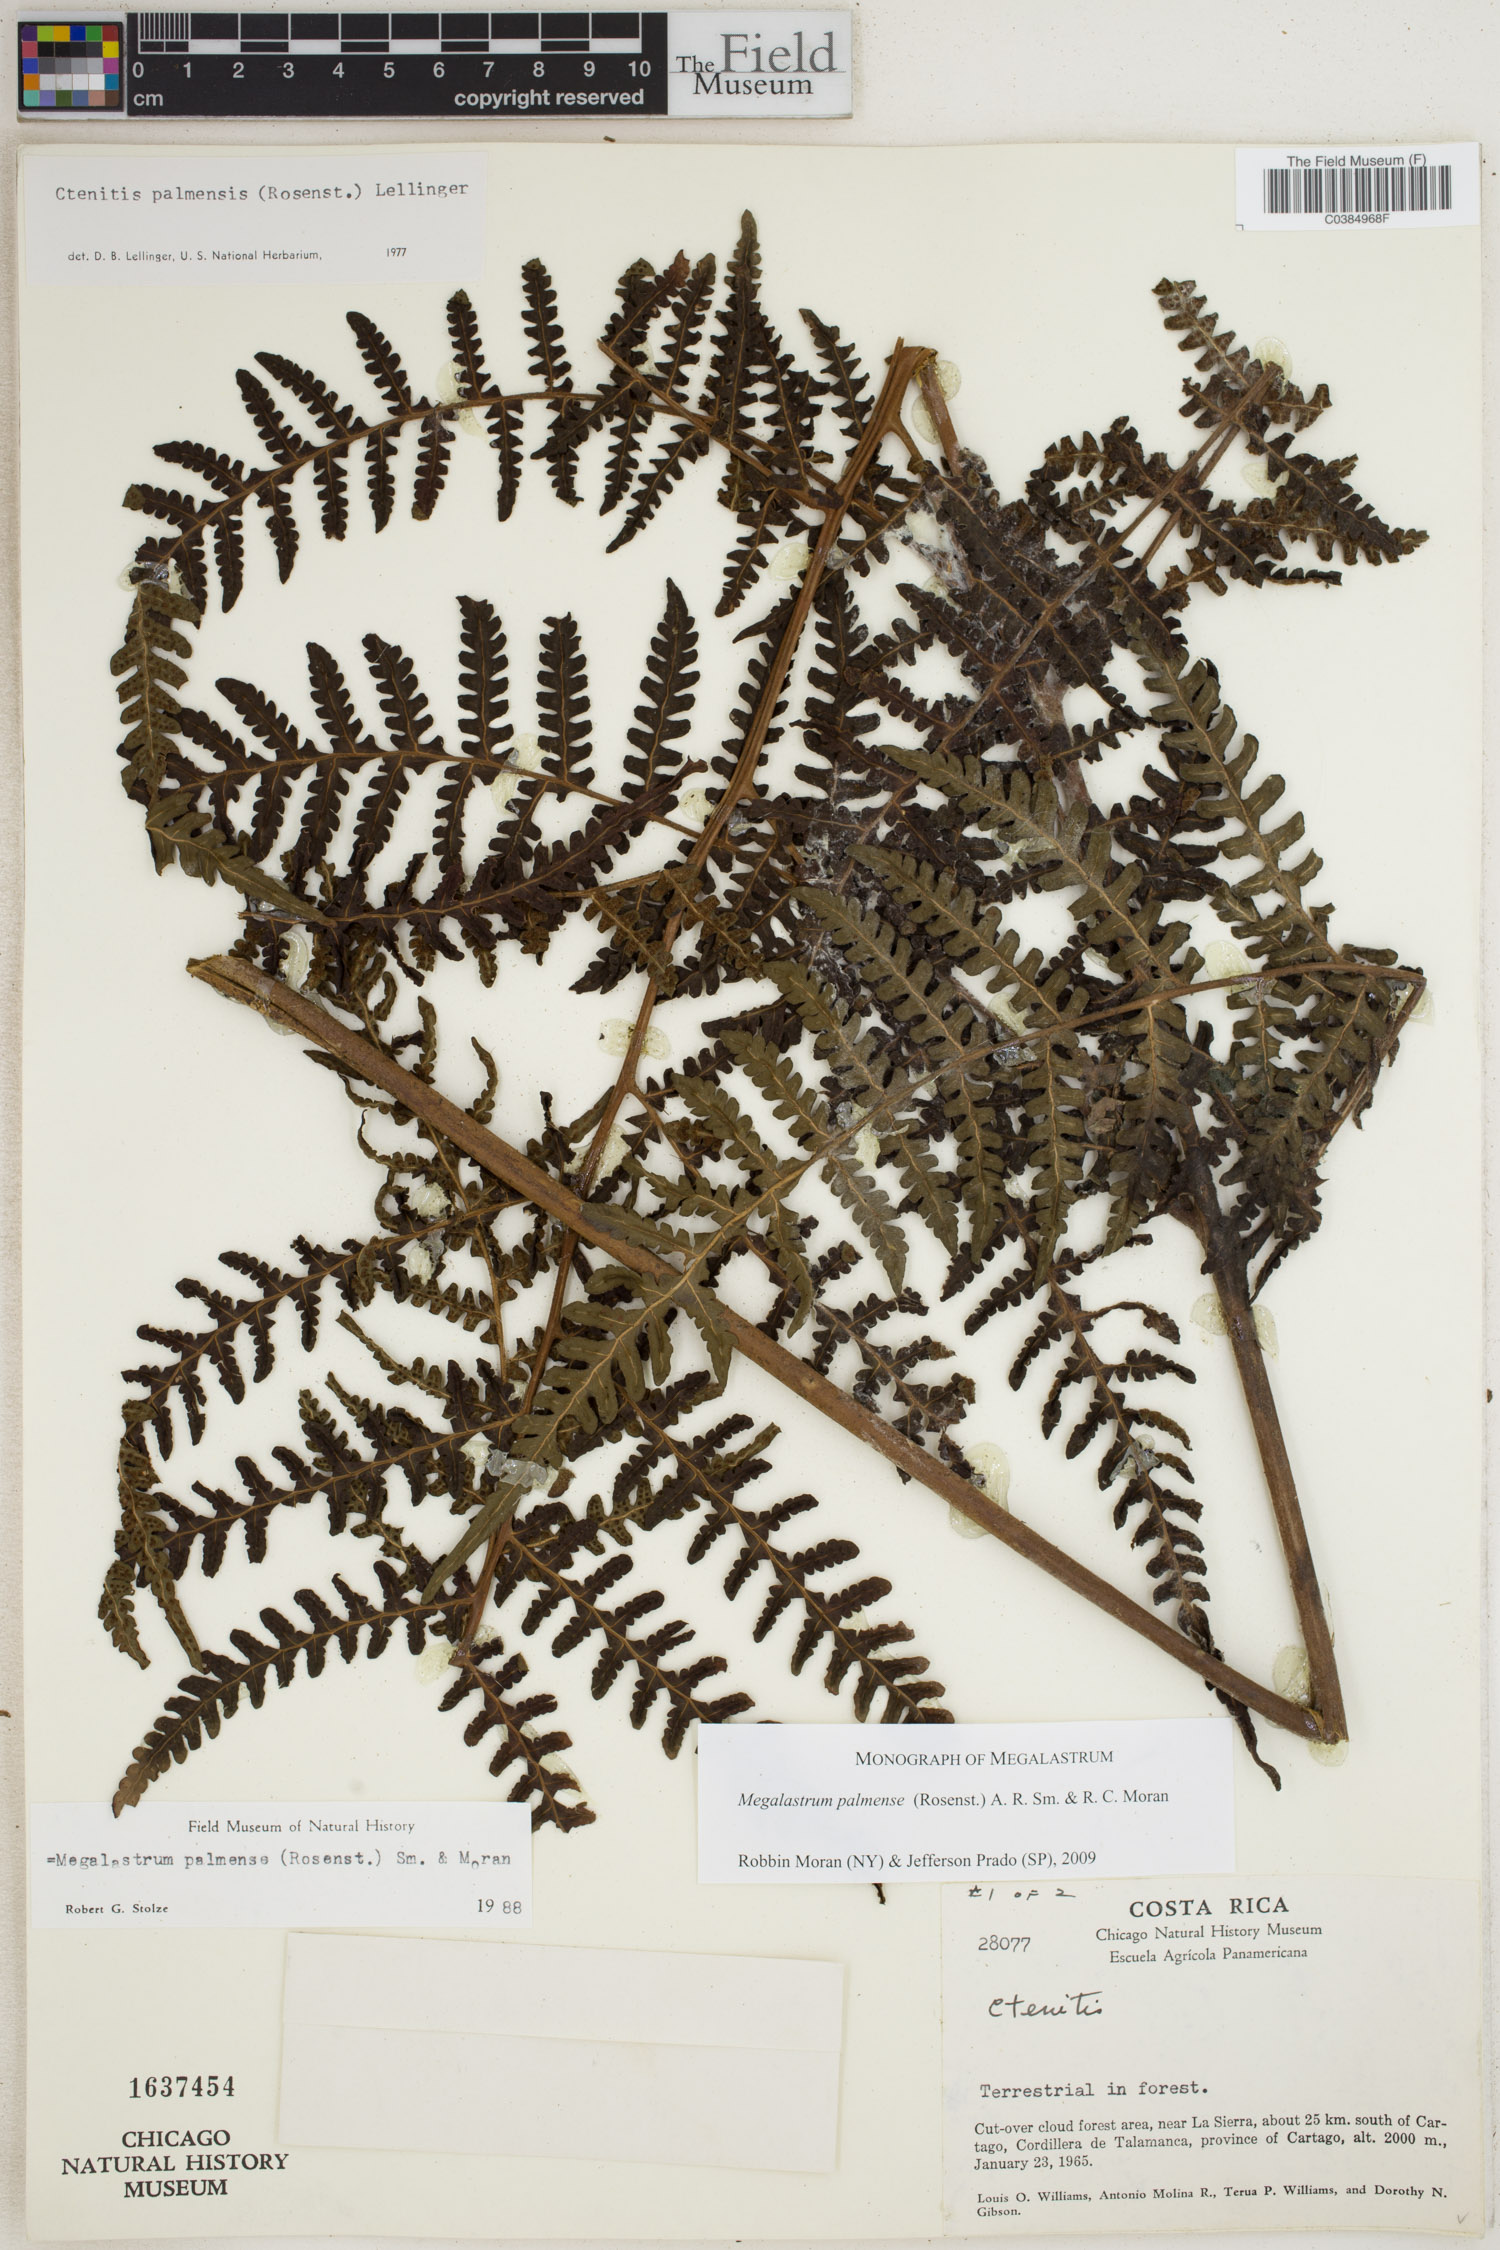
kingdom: Plantae
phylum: Tracheophyta
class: Polypodiopsida
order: Polypodiales
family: Dryopteridaceae
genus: Megalastrum
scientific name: Megalastrum palmense
